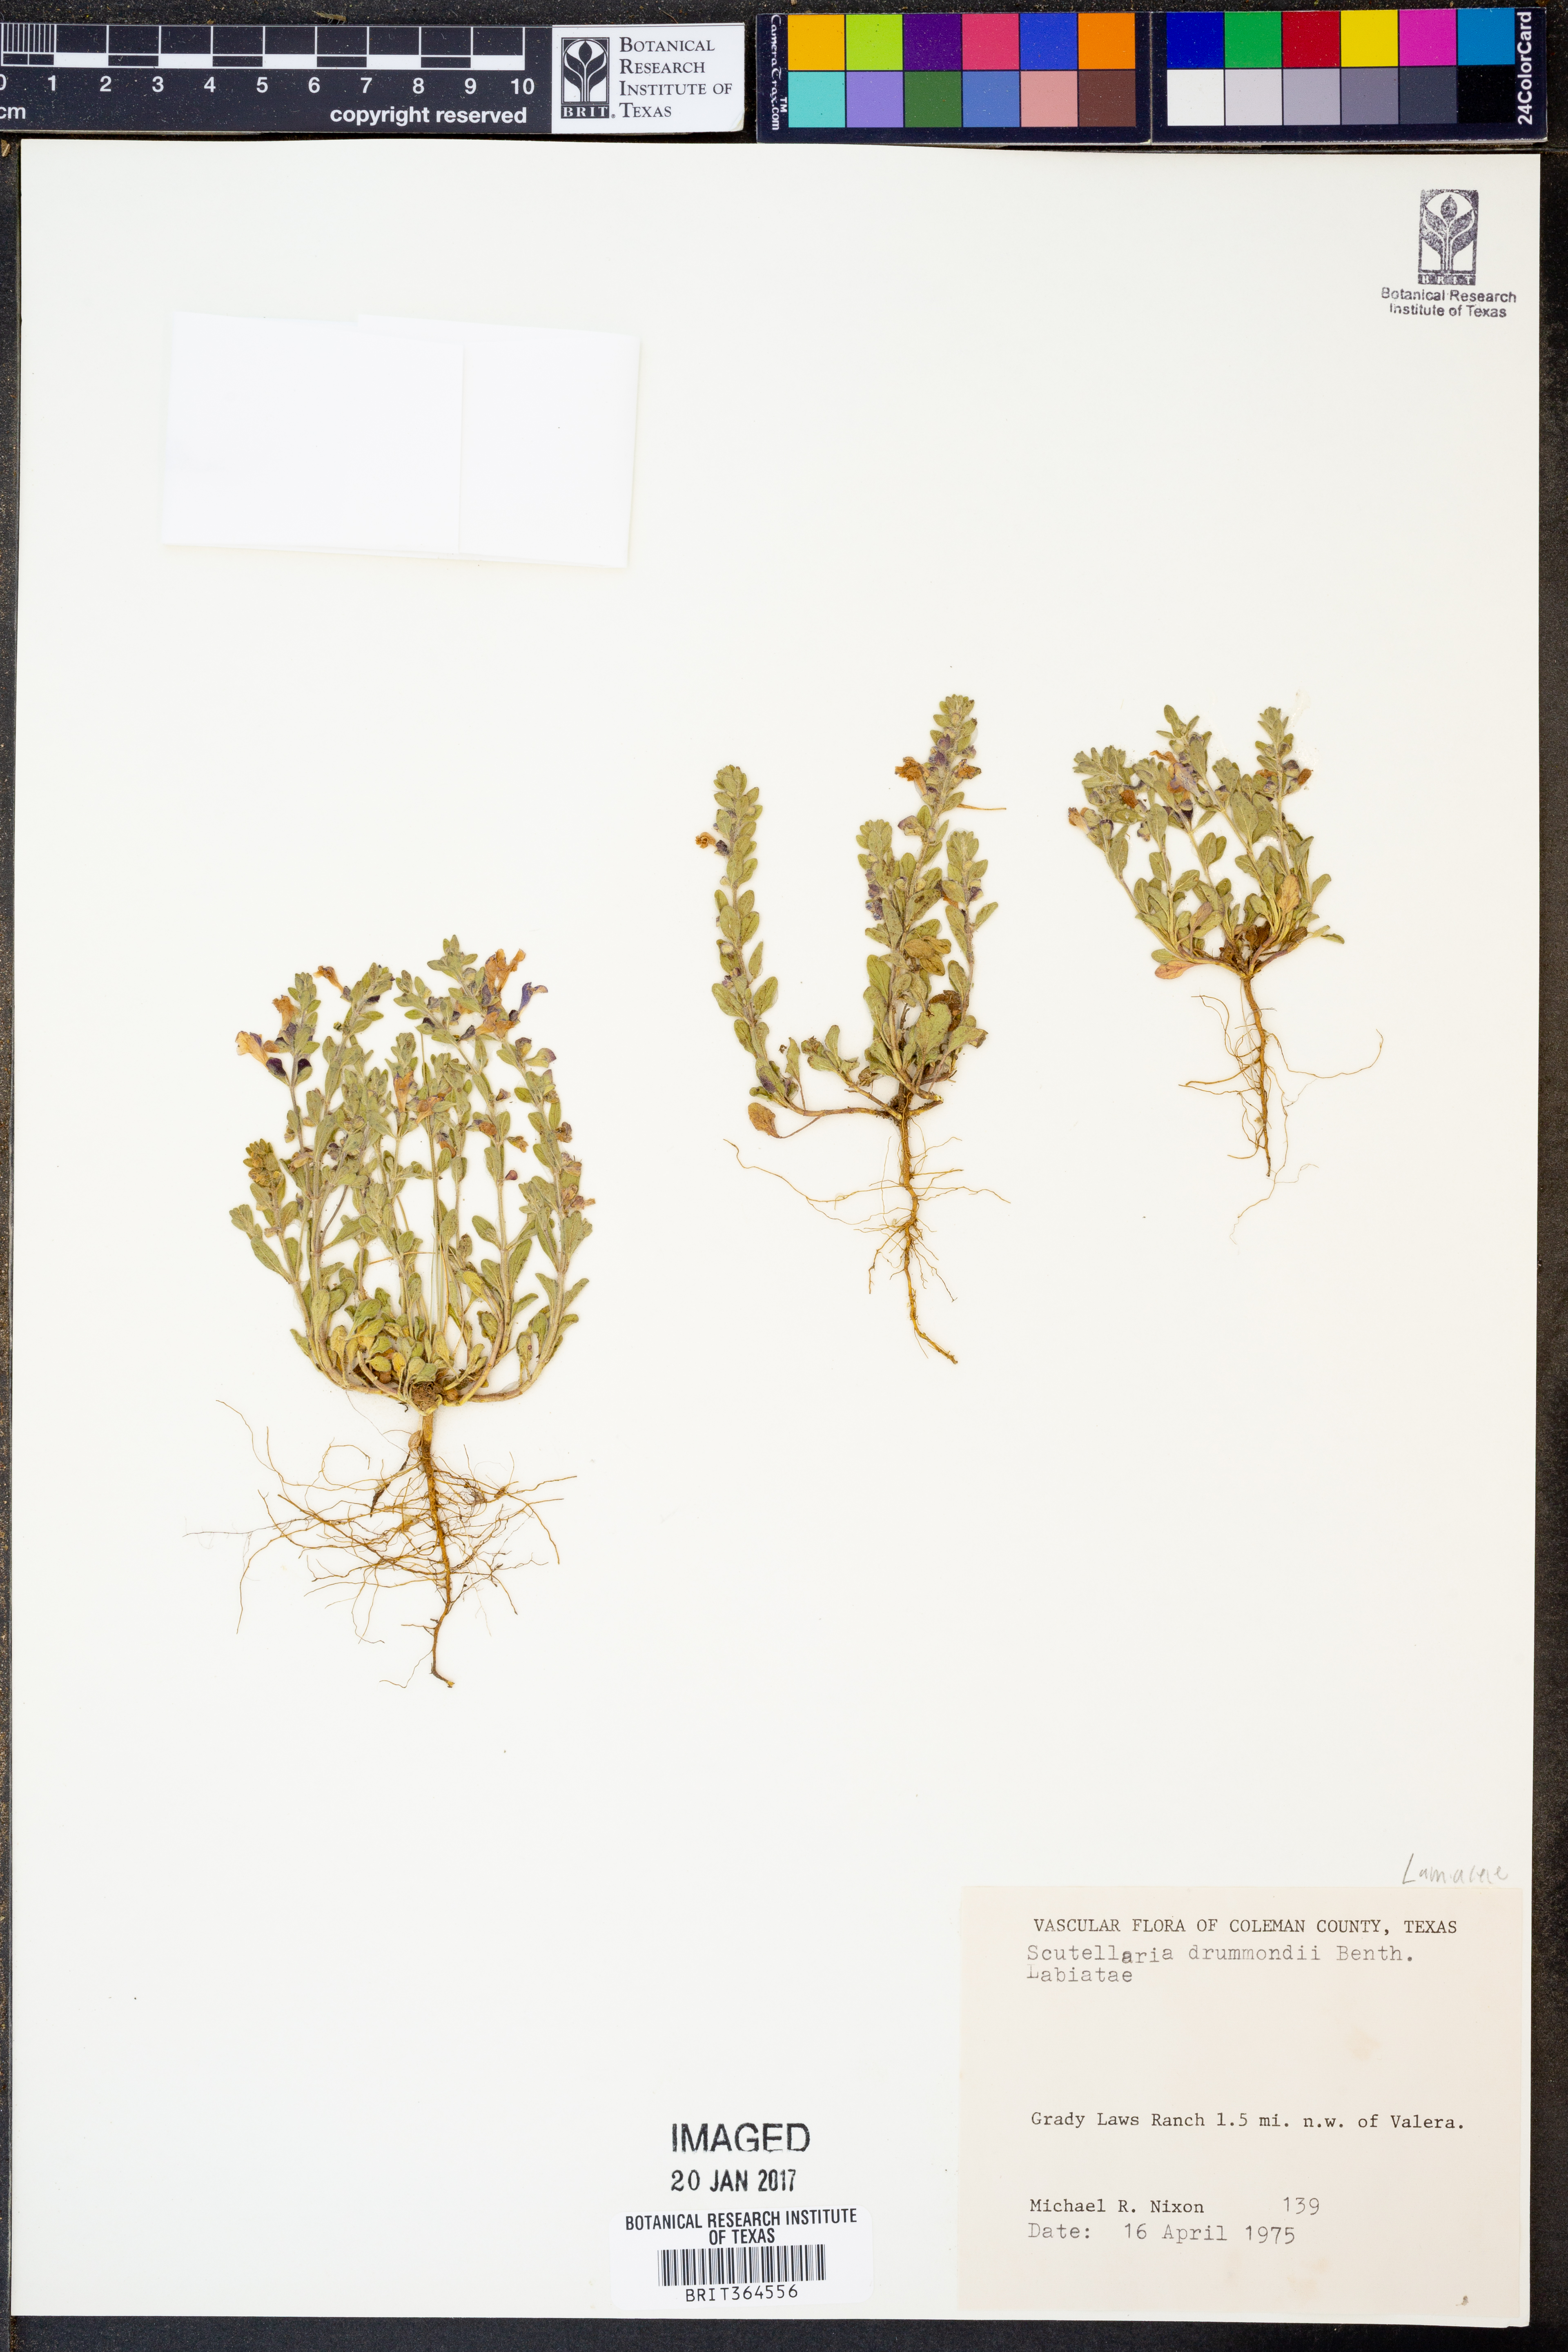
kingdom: Plantae
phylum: Tracheophyta
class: Magnoliopsida
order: Lamiales
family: Lamiaceae
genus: Scutellaria
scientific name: Scutellaria drummondii
